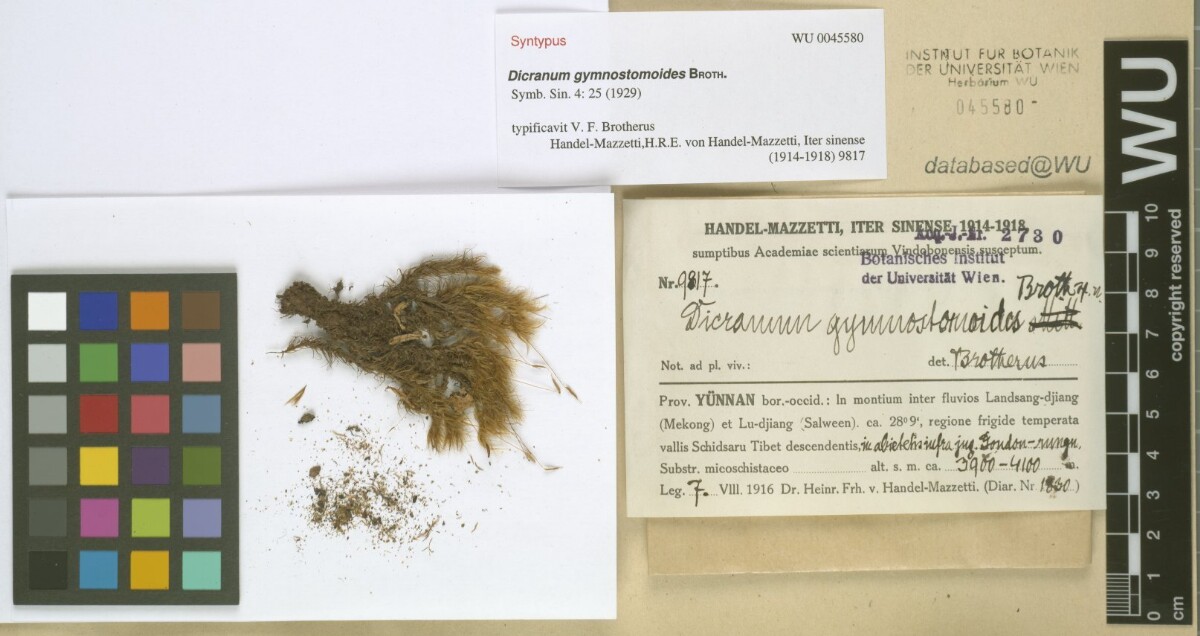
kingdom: Plantae
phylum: Bryophyta
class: Bryopsida
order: Dicranales
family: Dicranaceae
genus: Pseudochorisodontium
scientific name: Pseudochorisodontium gymnostomum
